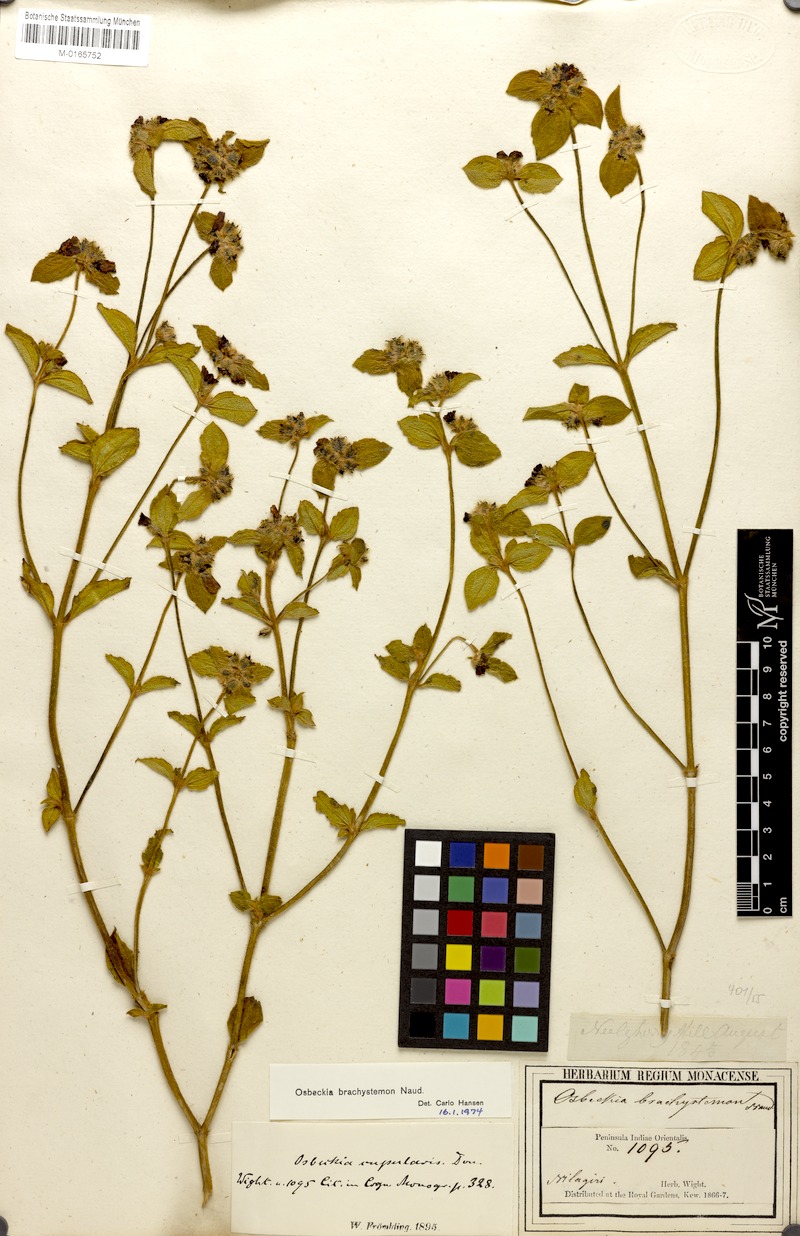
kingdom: Plantae
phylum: Tracheophyta
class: Magnoliopsida
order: Myrtales
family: Melastomataceae
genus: Osbeckia
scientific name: Osbeckia brachystemon
